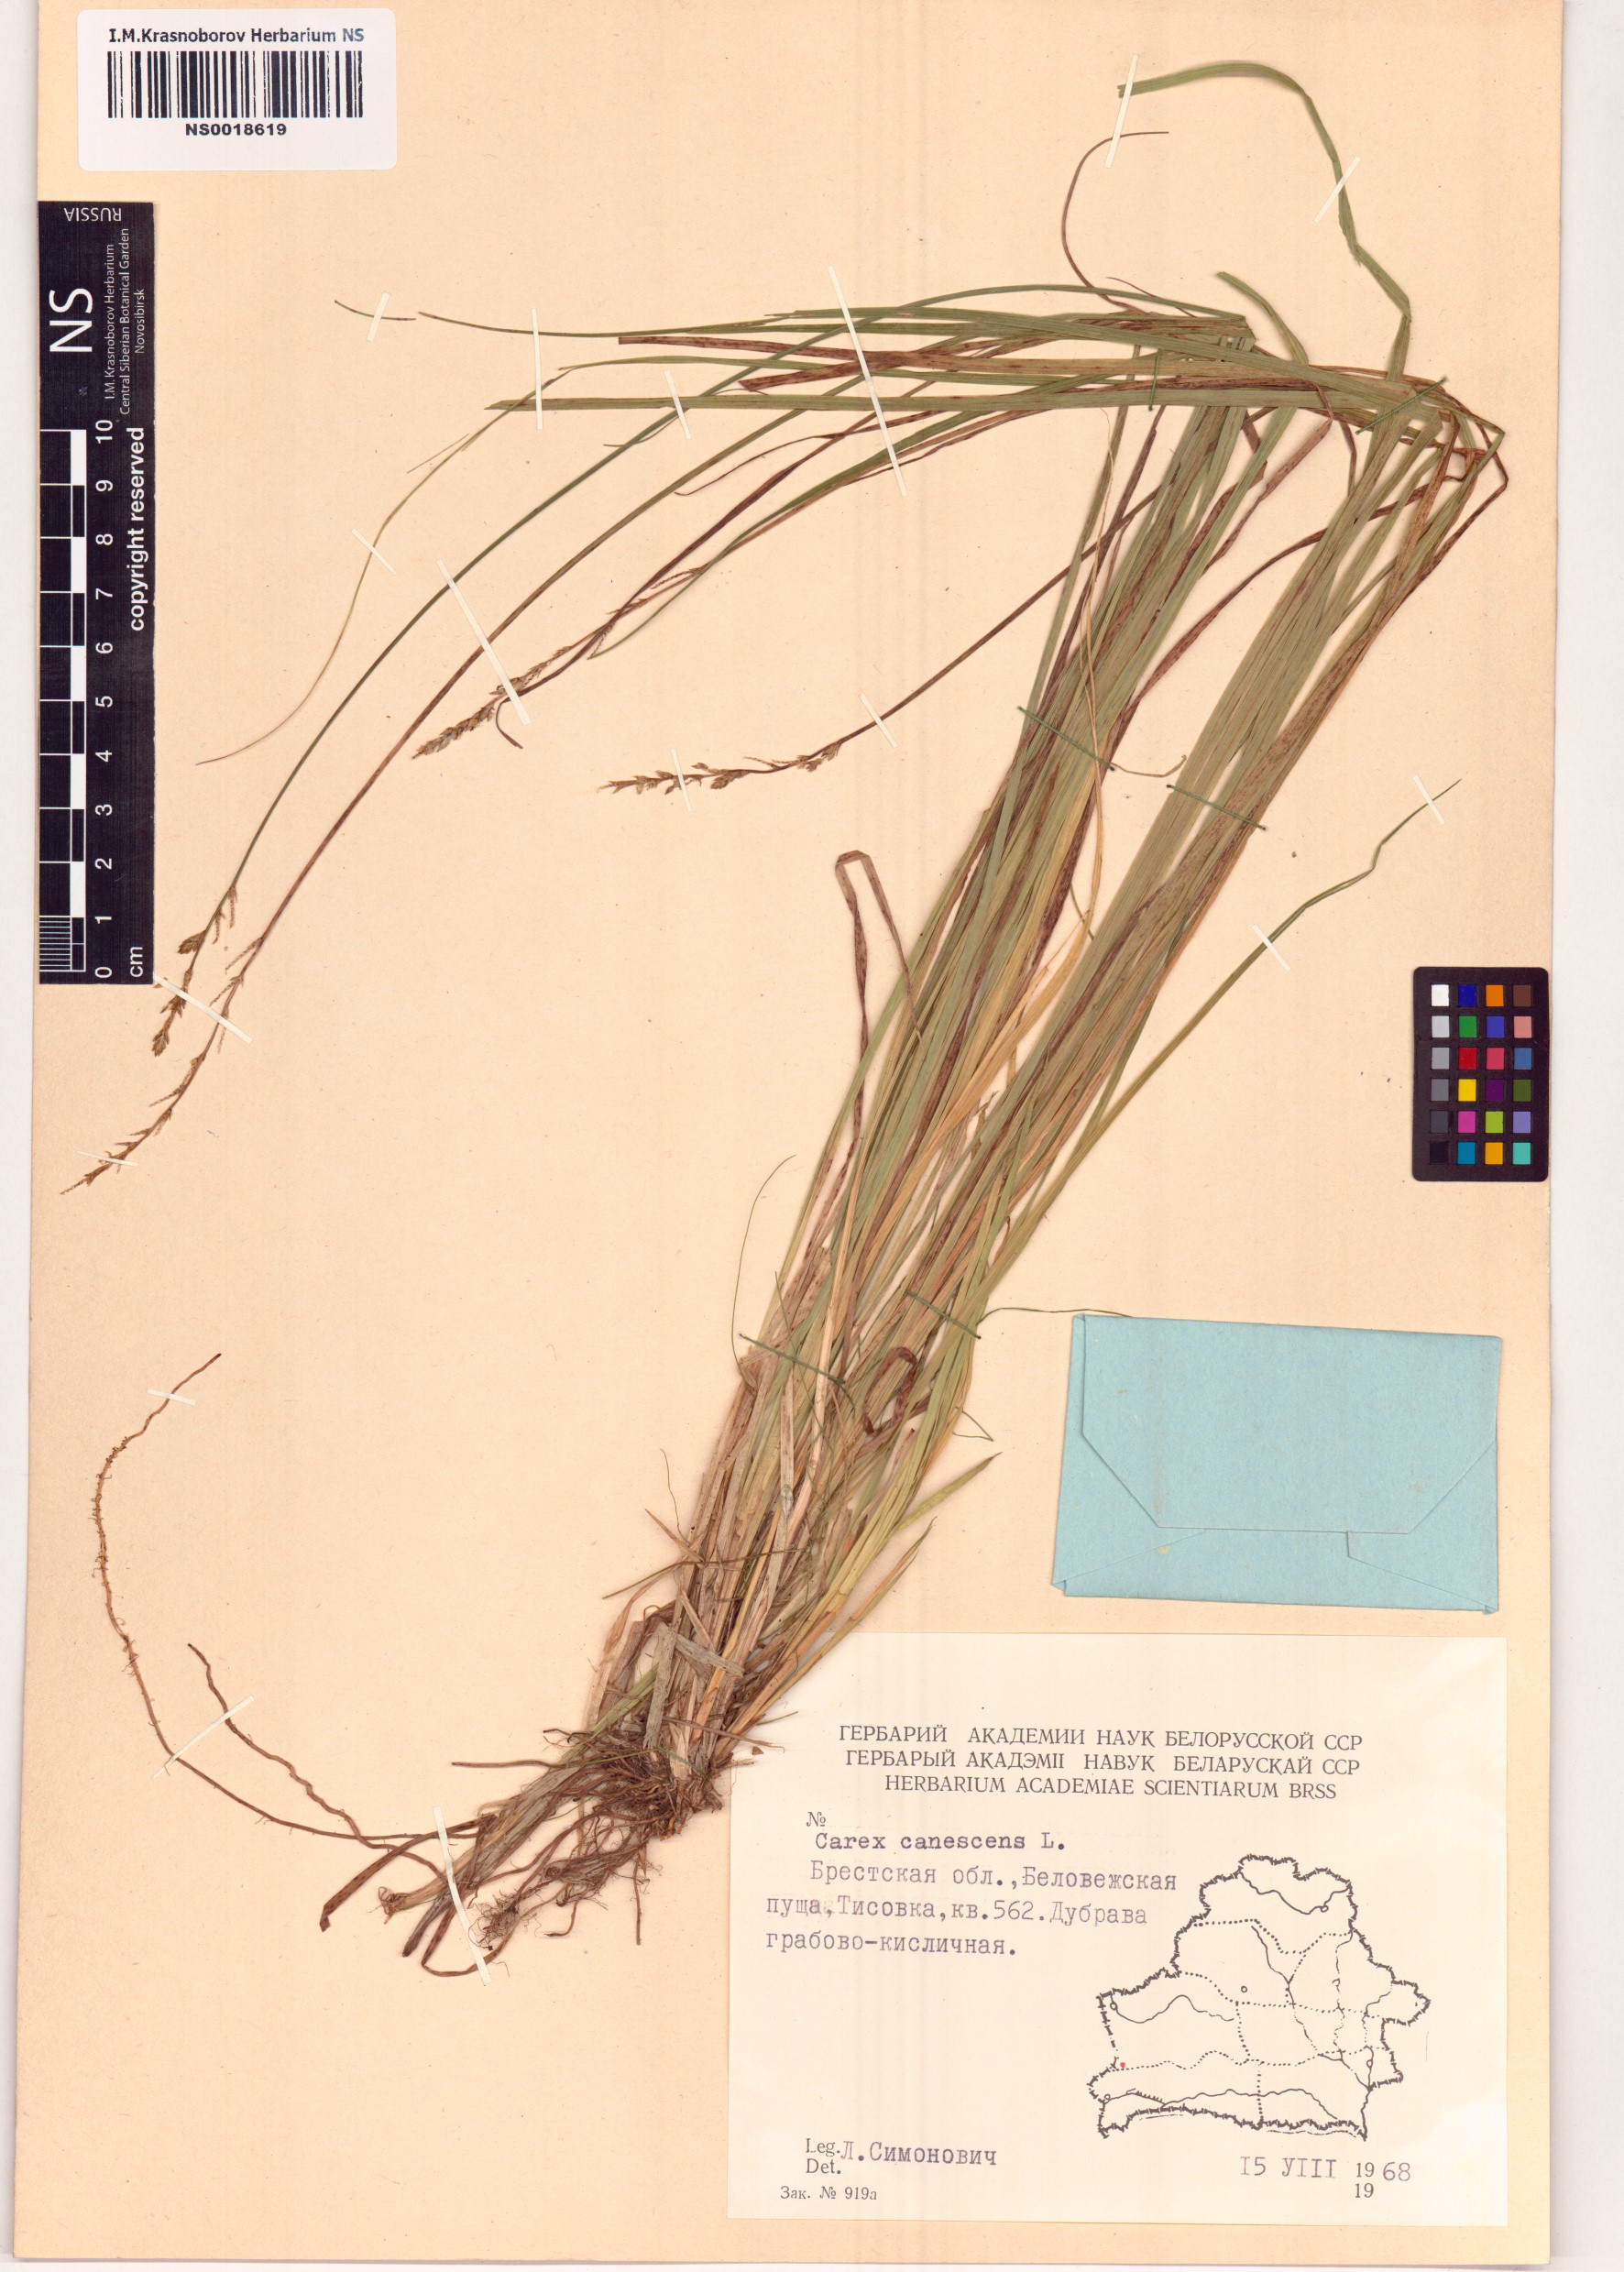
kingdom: Plantae
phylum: Tracheophyta
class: Liliopsida
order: Poales
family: Cyperaceae
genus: Carex
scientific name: Carex canescens
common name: White sedge
